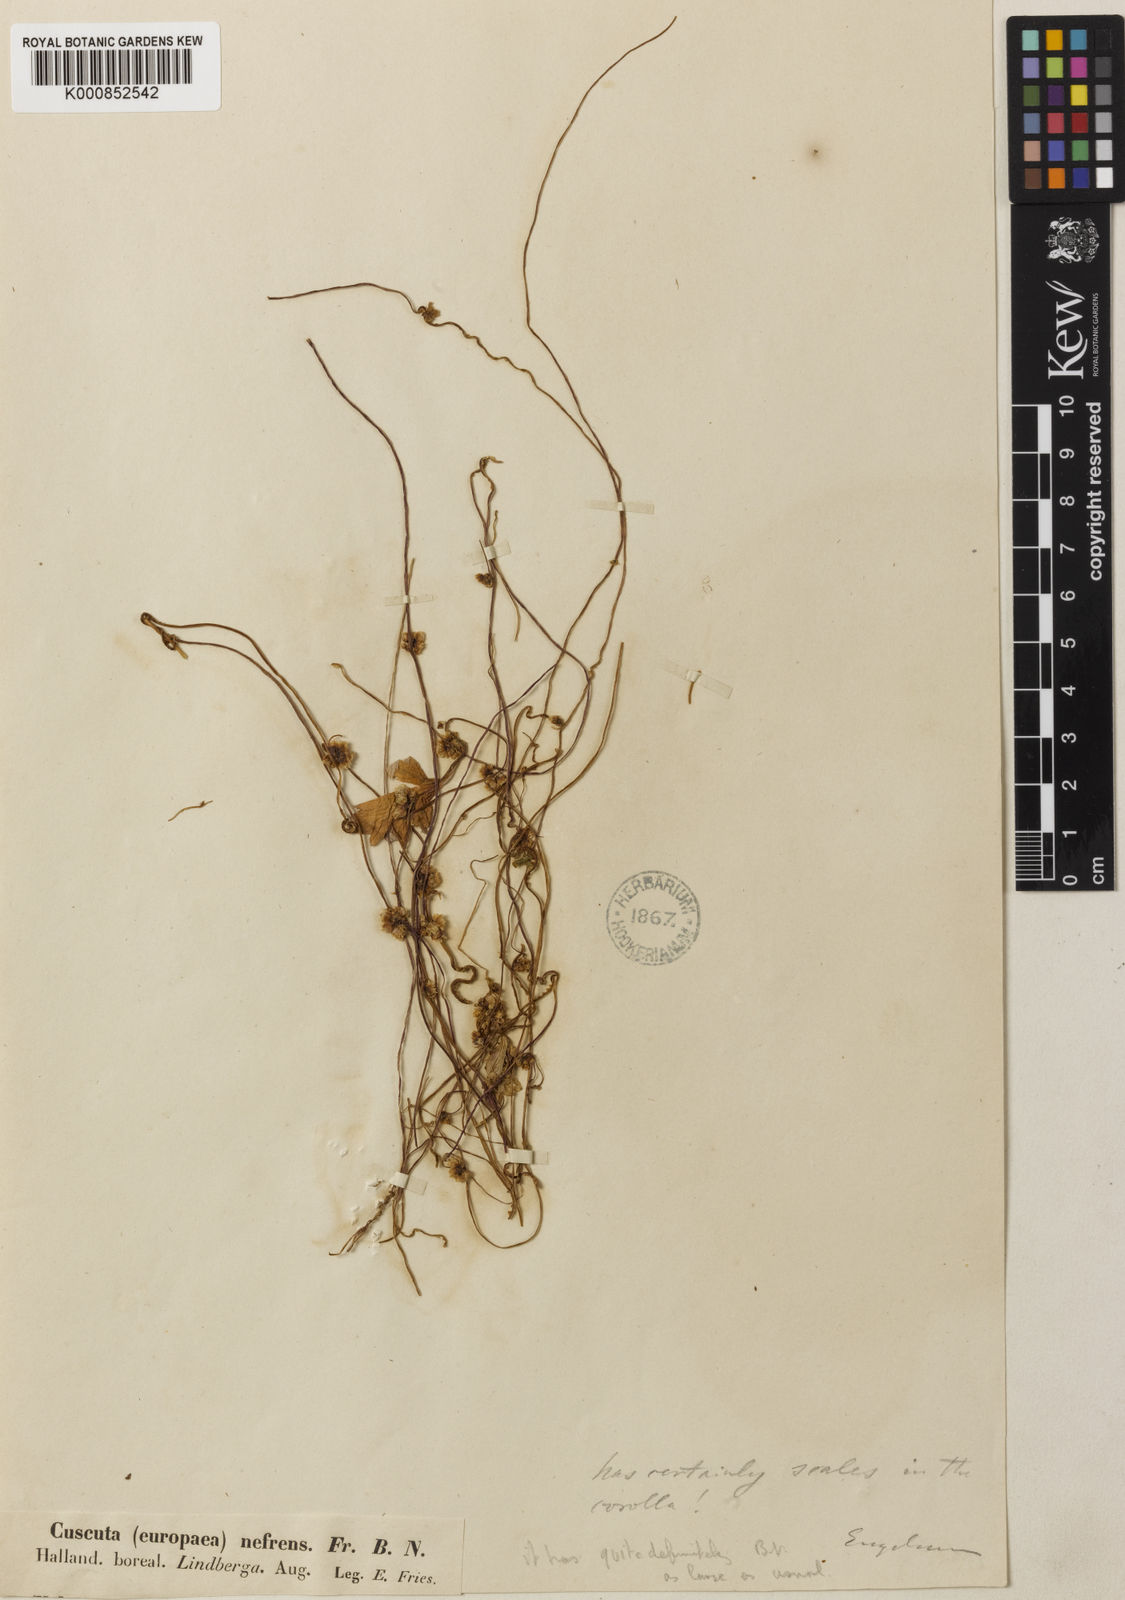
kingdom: Plantae
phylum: Tracheophyta
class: Magnoliopsida
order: Solanales
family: Convolvulaceae
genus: Cuscuta
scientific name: Cuscuta europaea
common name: Greater dodder
